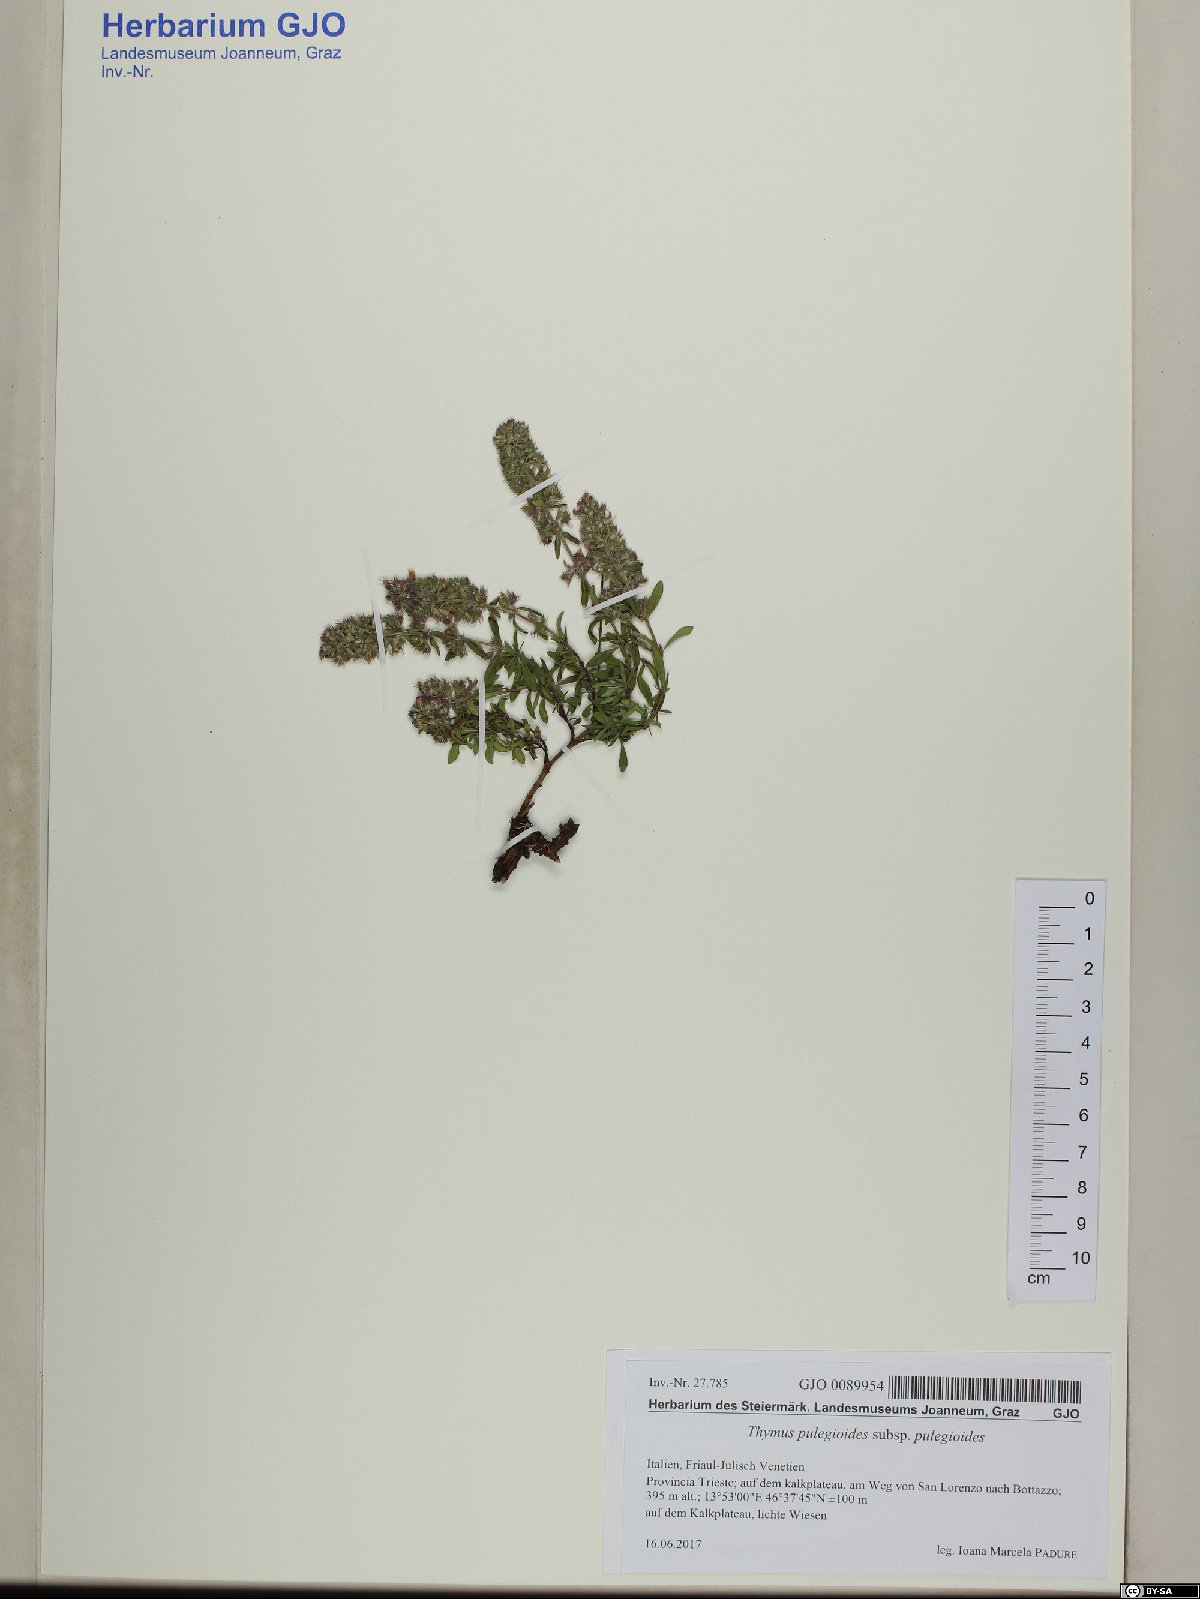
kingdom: Plantae
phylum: Tracheophyta
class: Magnoliopsida
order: Lamiales
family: Lamiaceae
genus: Thymus
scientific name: Thymus pulegioides
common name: Large thyme
